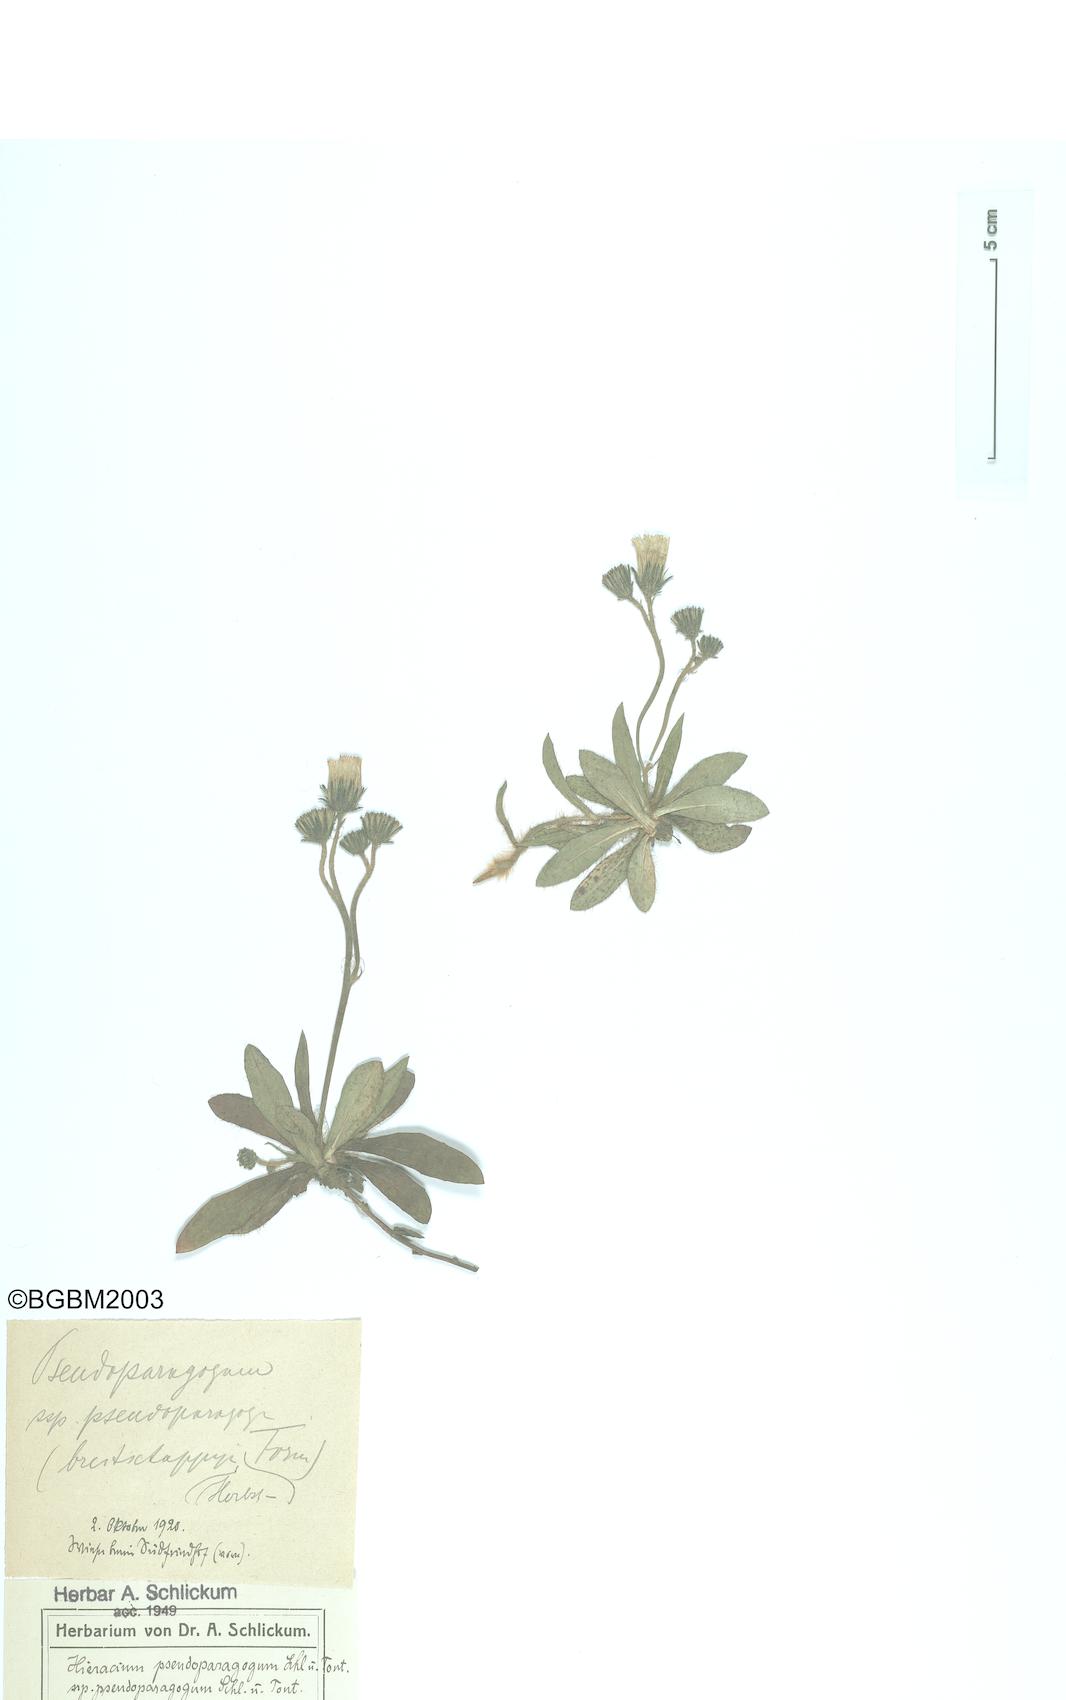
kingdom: Plantae
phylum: Tracheophyta
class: Magnoliopsida
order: Asterales
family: Asteraceae
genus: Pilosella
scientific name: Pilosella pseudoparagoga
